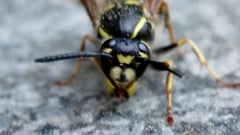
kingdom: Animalia
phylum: Arthropoda
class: Insecta
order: Hymenoptera
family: Vespidae
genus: Vespula
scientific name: Vespula vulgaris
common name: Common wasp
